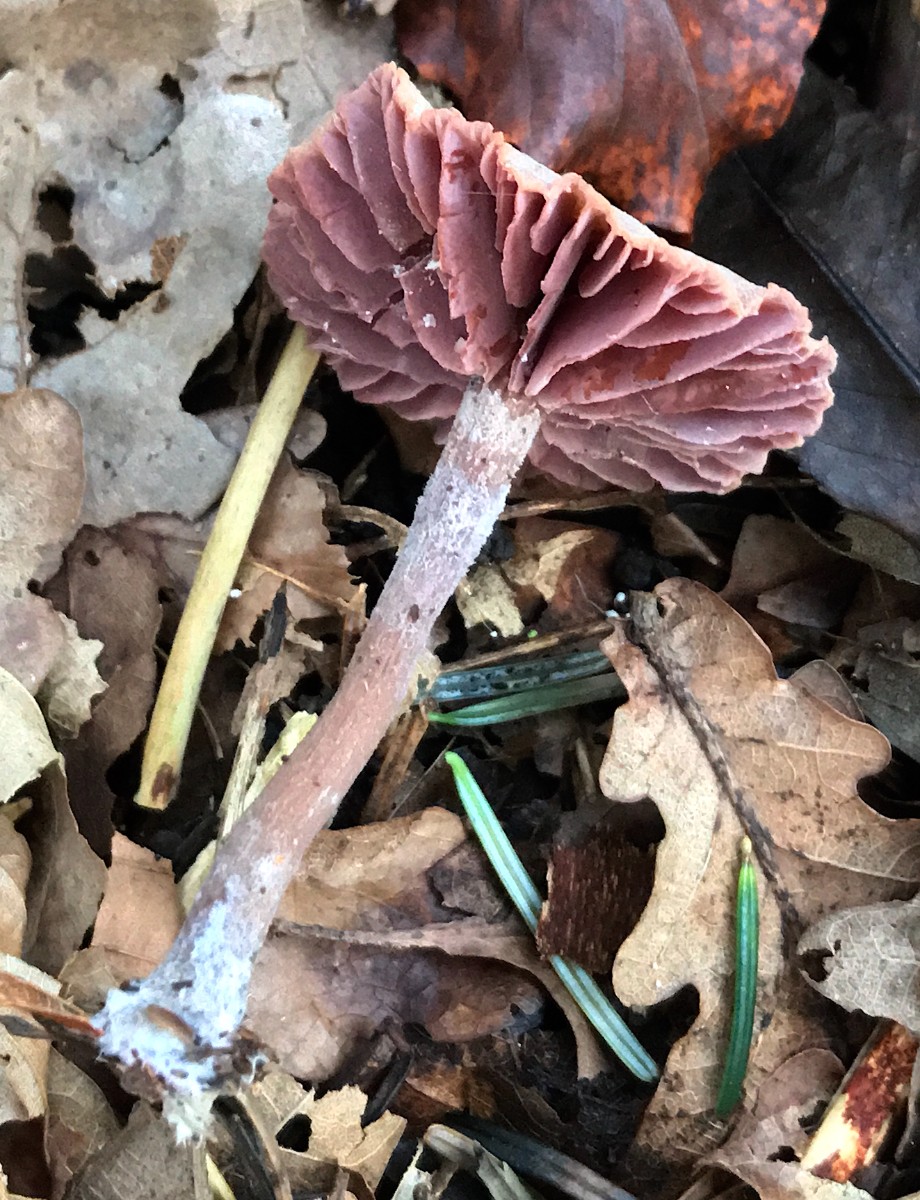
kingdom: Fungi
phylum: Basidiomycota
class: Agaricomycetes
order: Agaricales
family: Hydnangiaceae
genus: Laccaria
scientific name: Laccaria amethystina
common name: violet ametysthat
